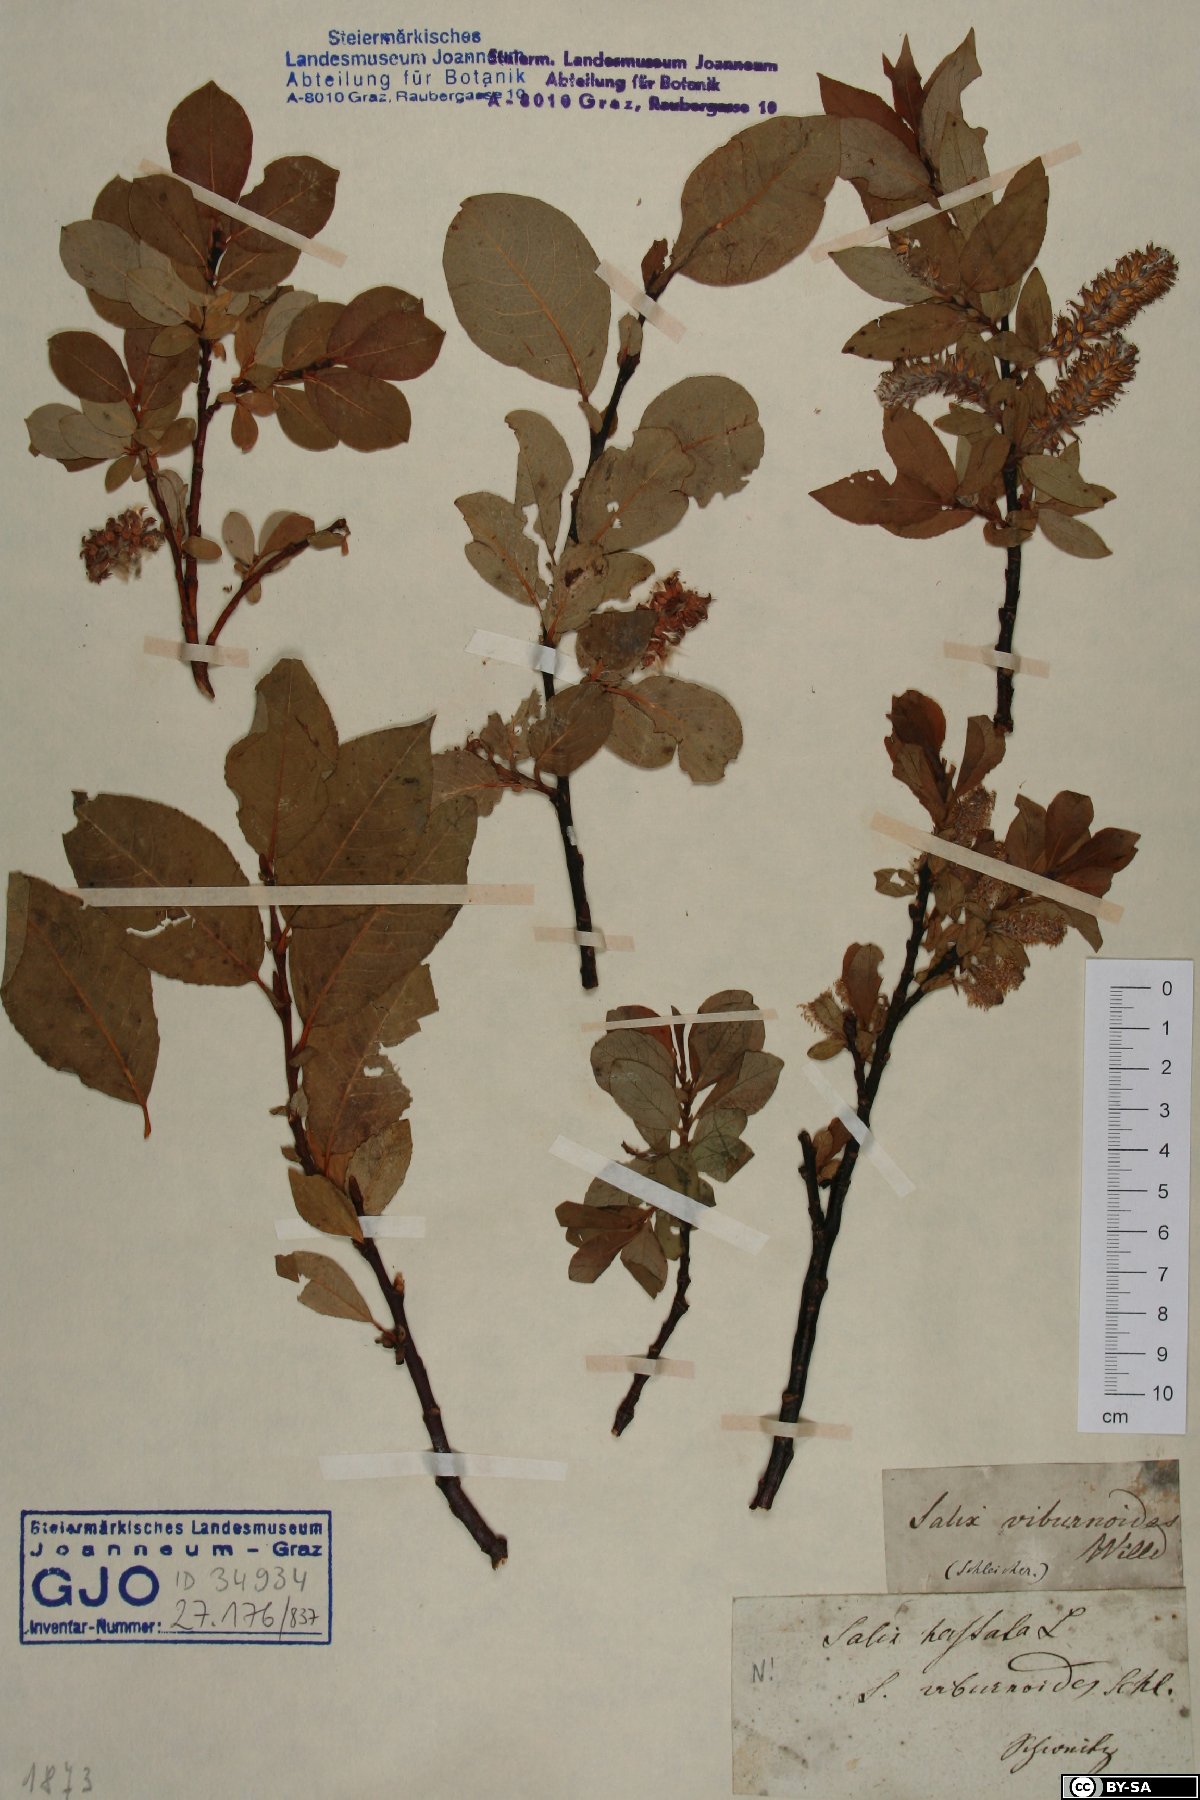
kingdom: Plantae
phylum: Tracheophyta
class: Magnoliopsida
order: Malpighiales
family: Salicaceae
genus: Salix
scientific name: Salix hastata
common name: Halberd willow
